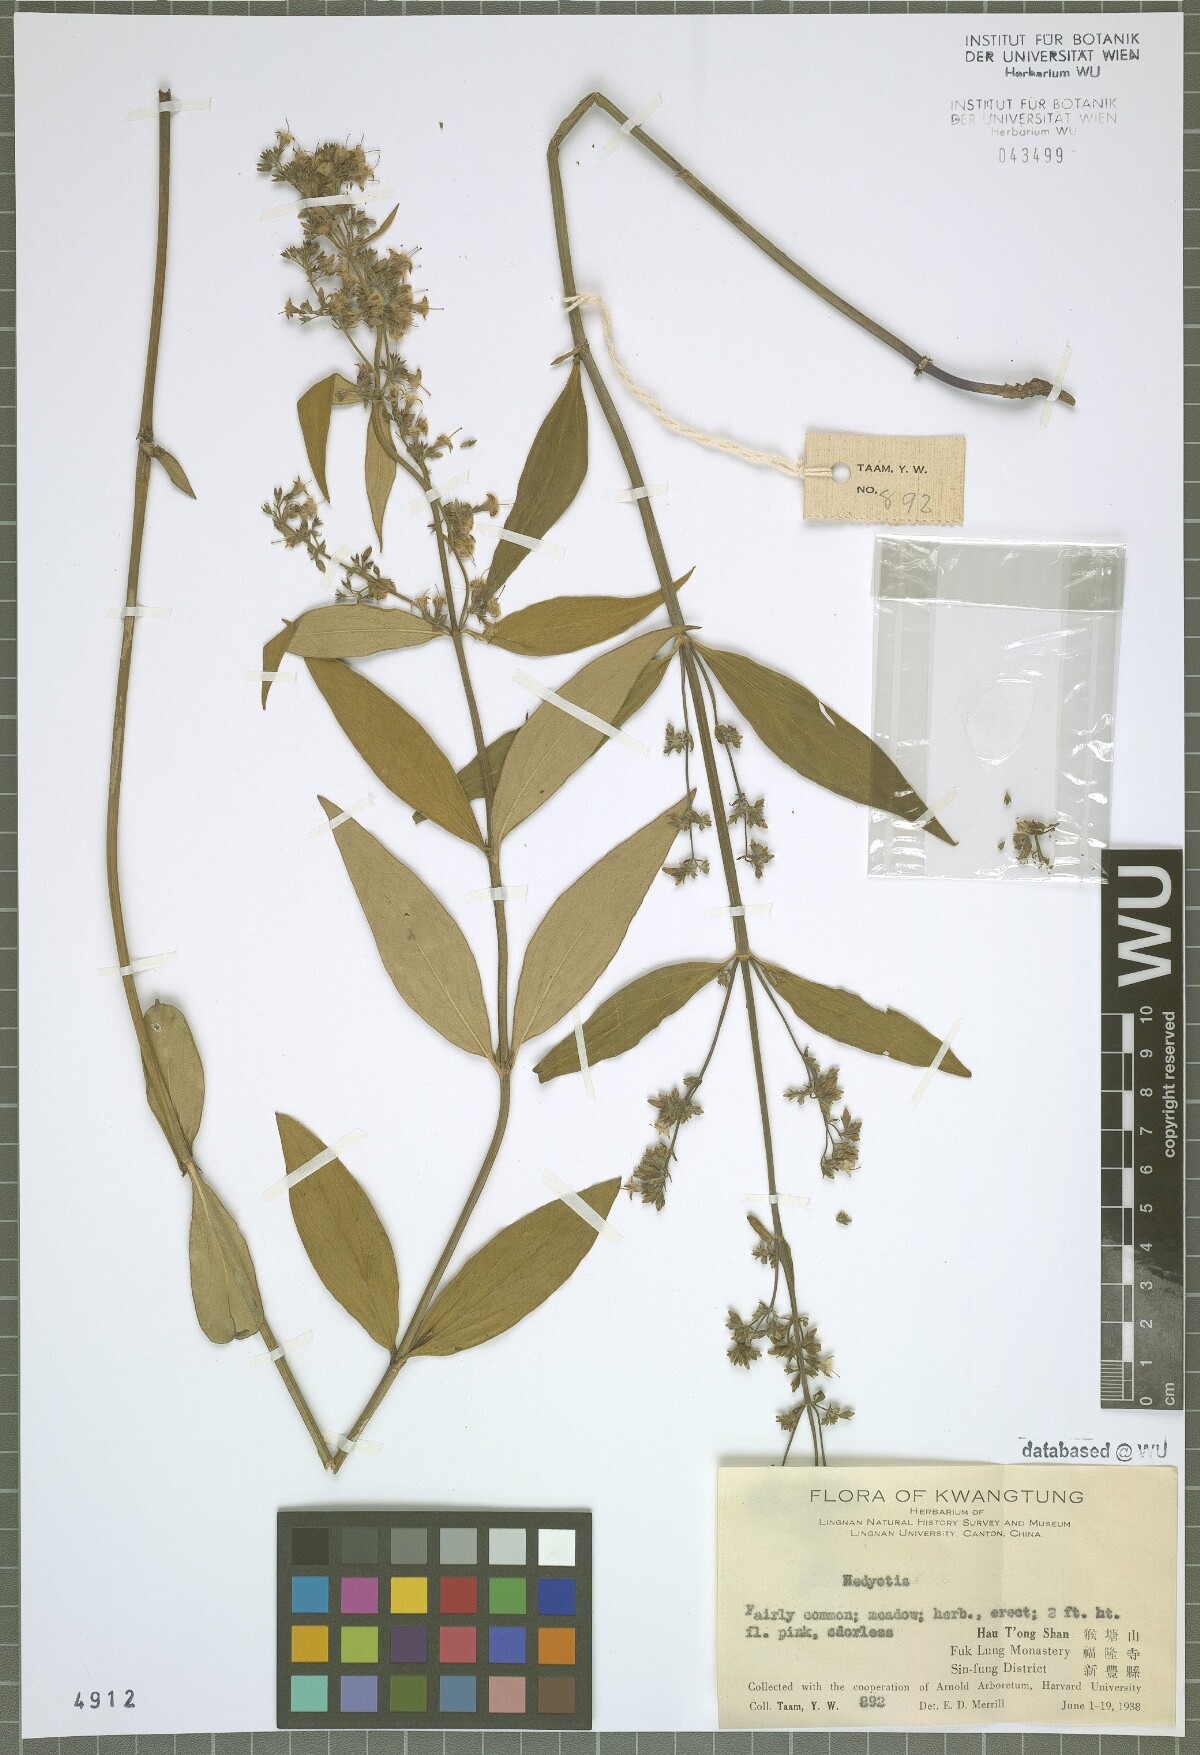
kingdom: Plantae
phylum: Tracheophyta
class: Magnoliopsida
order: Gentianales
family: Rubiaceae
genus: Hedyotis
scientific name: Hedyotis
